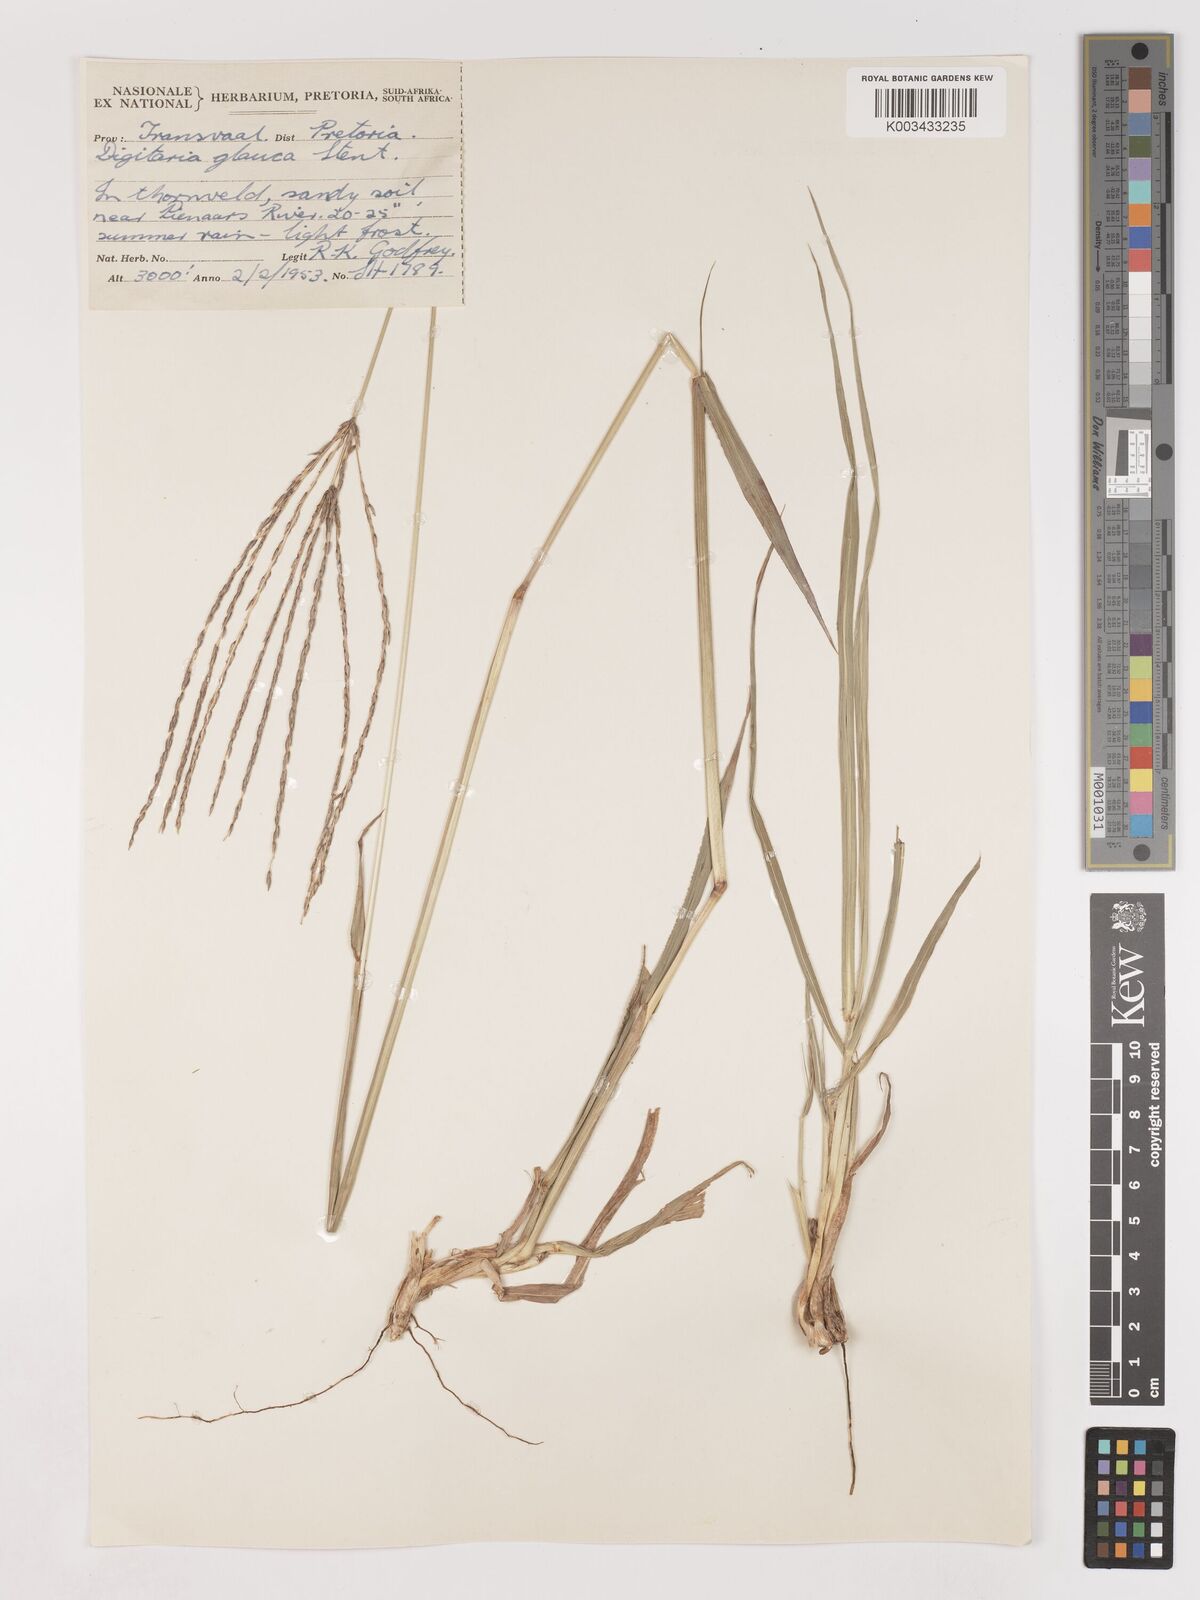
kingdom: Plantae
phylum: Tracheophyta
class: Liliopsida
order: Poales
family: Poaceae
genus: Digitaria
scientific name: Digitaria eriantha
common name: Digitgrass
